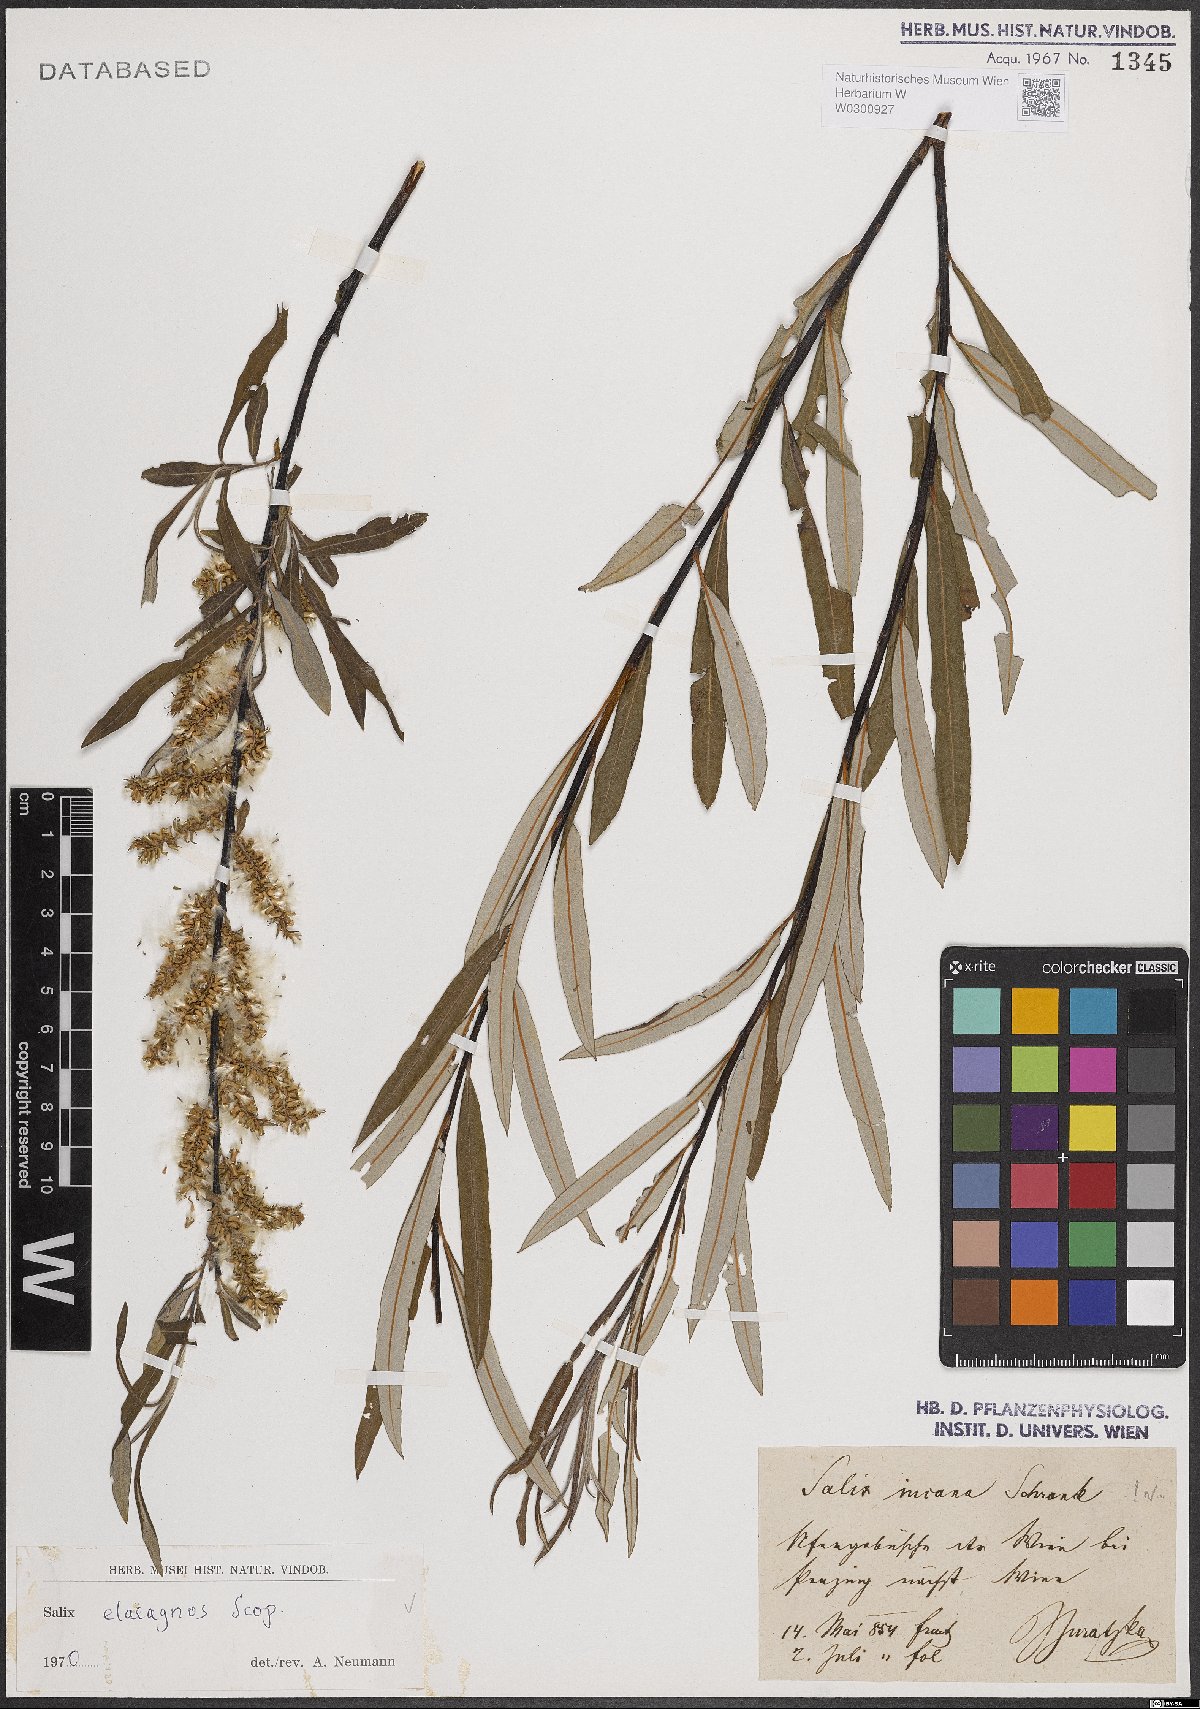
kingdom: Plantae
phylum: Tracheophyta
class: Magnoliopsida
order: Malpighiales
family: Salicaceae
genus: Salix
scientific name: Salix eleagnos
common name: Elaeagnus willow
